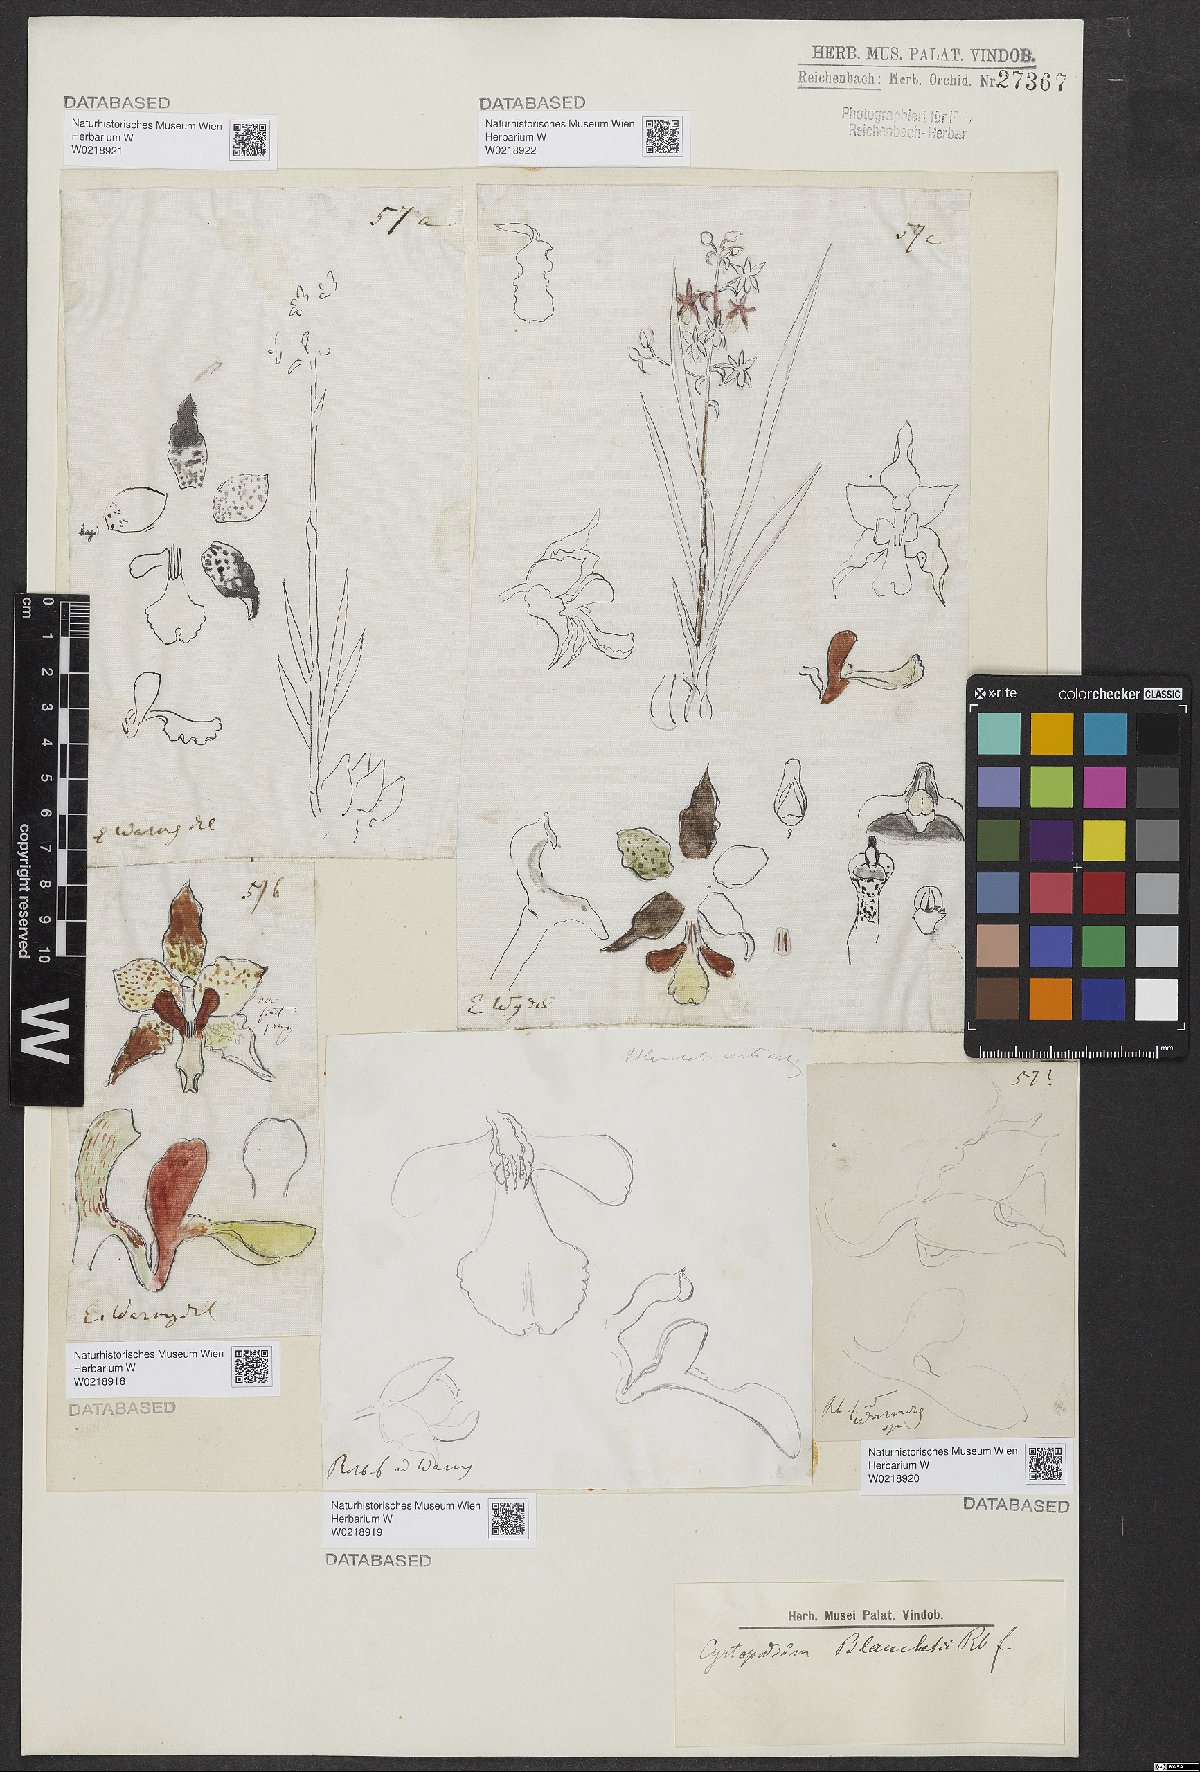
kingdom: Plantae
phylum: Tracheophyta
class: Liliopsida
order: Asparagales
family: Orchidaceae
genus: Cyrtopodium
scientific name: Cyrtopodium blanchetii
